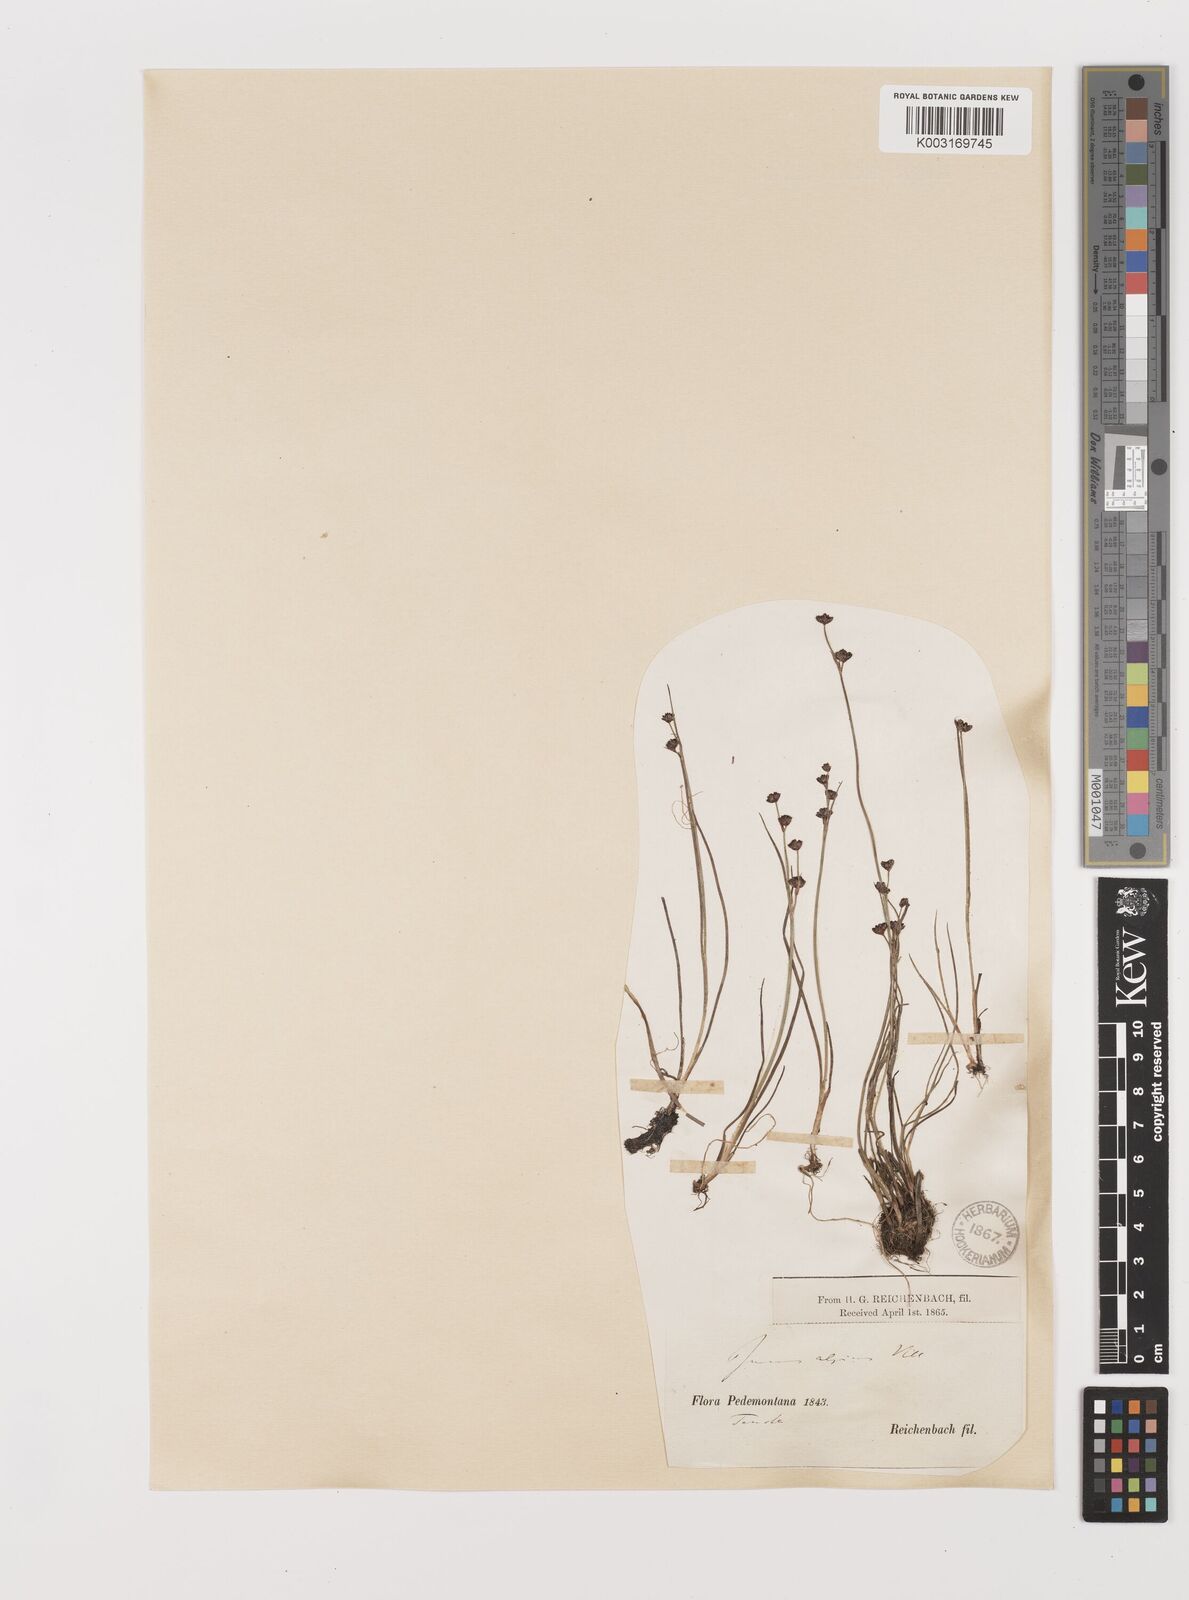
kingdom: Plantae
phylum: Tracheophyta
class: Liliopsida
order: Poales
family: Juncaceae
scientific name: Juncaceae
